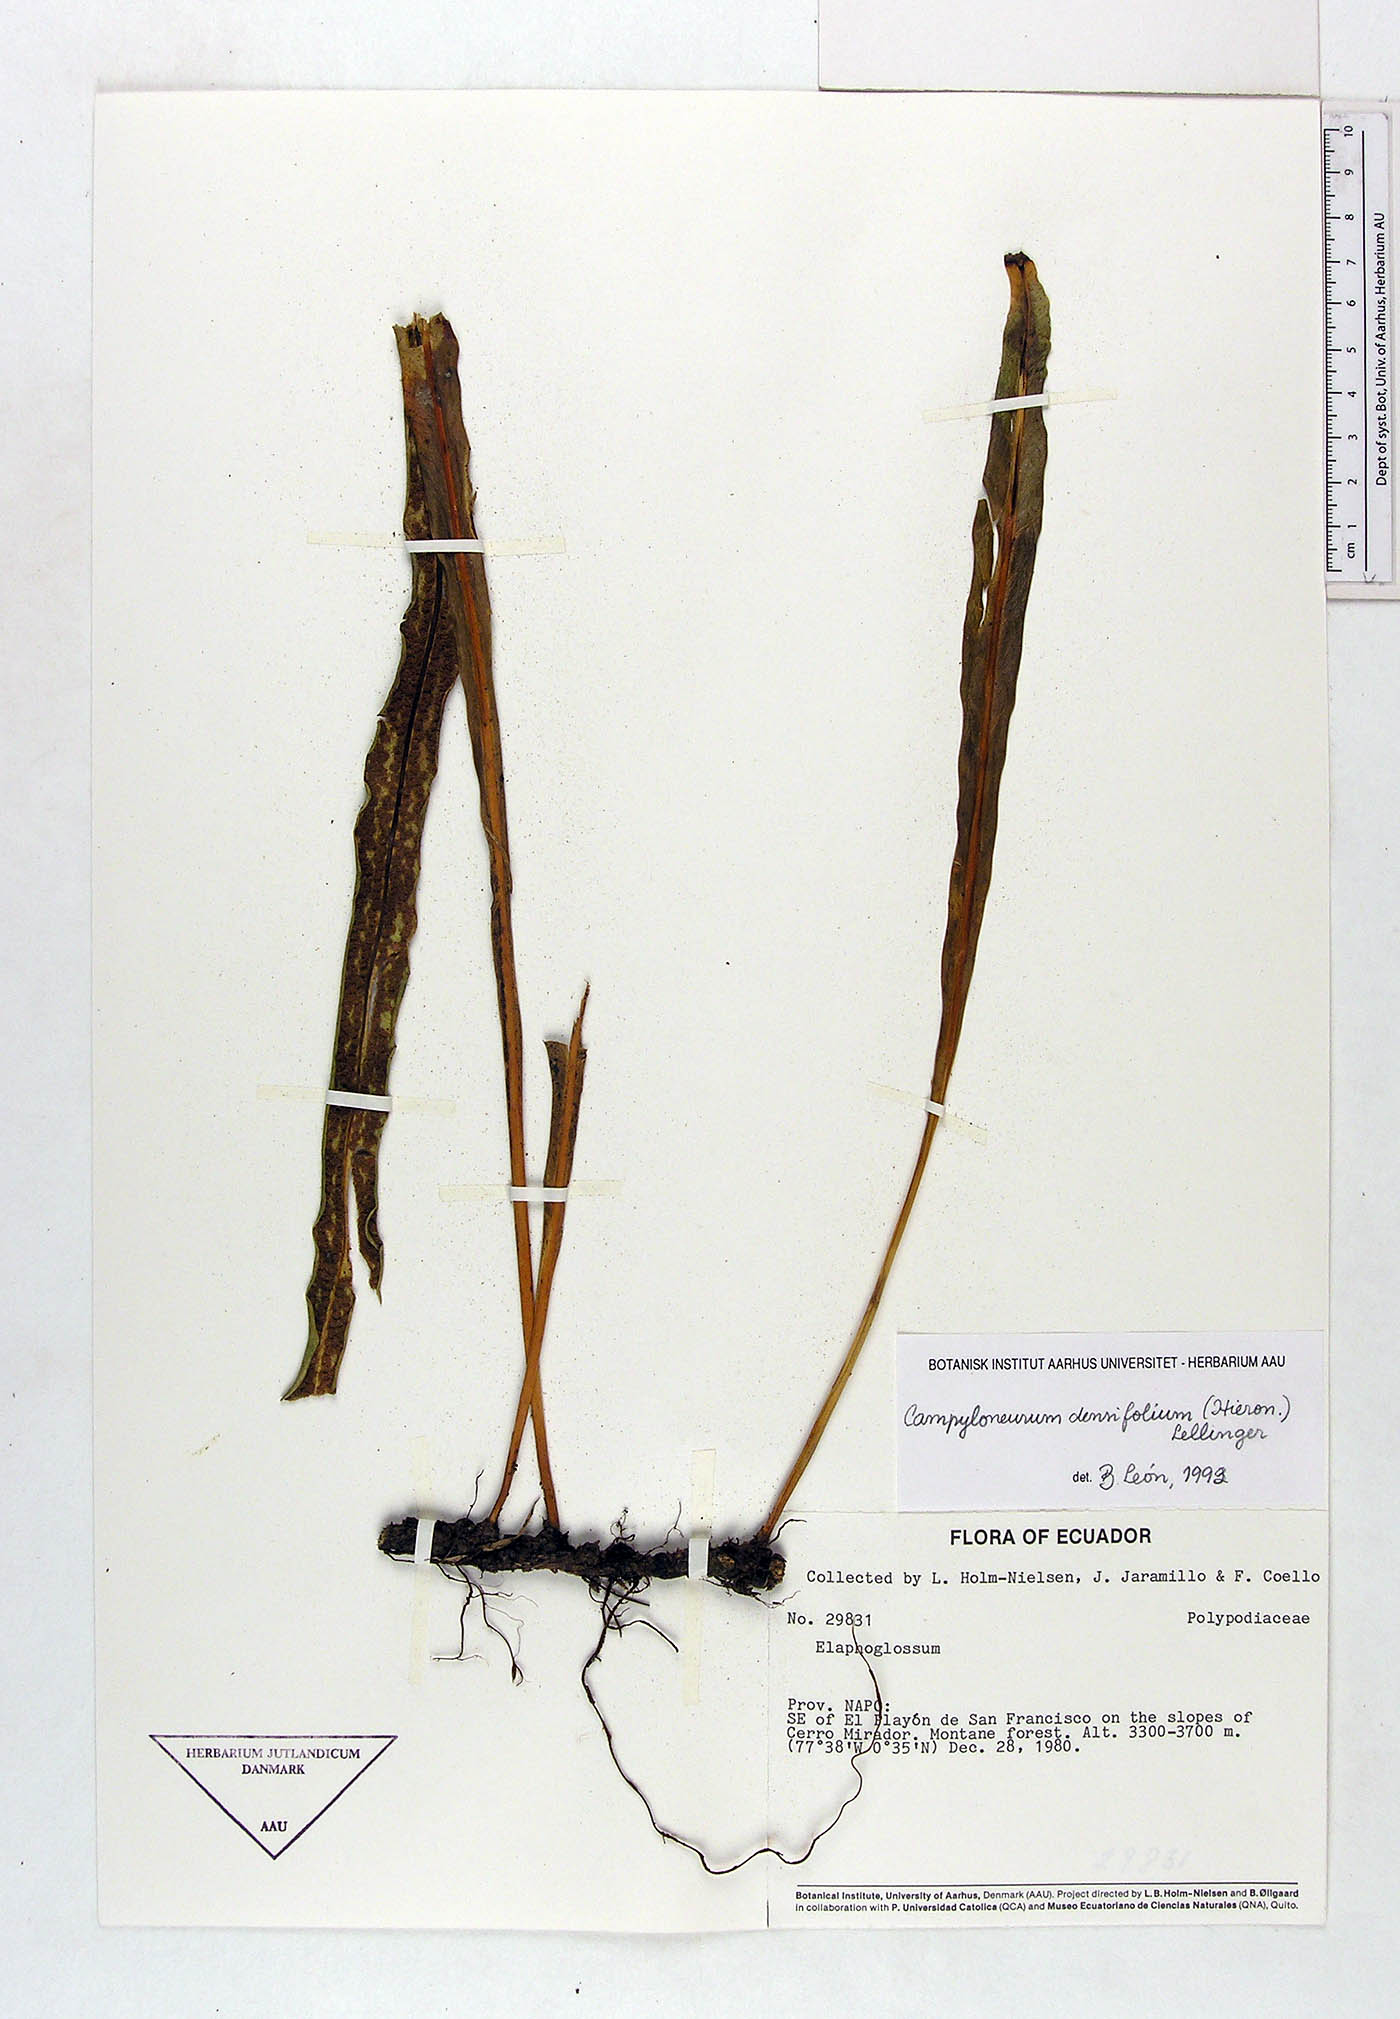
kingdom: Plantae
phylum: Tracheophyta
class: Polypodiopsida
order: Polypodiales
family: Polypodiaceae
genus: Campyloneurum
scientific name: Campyloneurum densifolium
